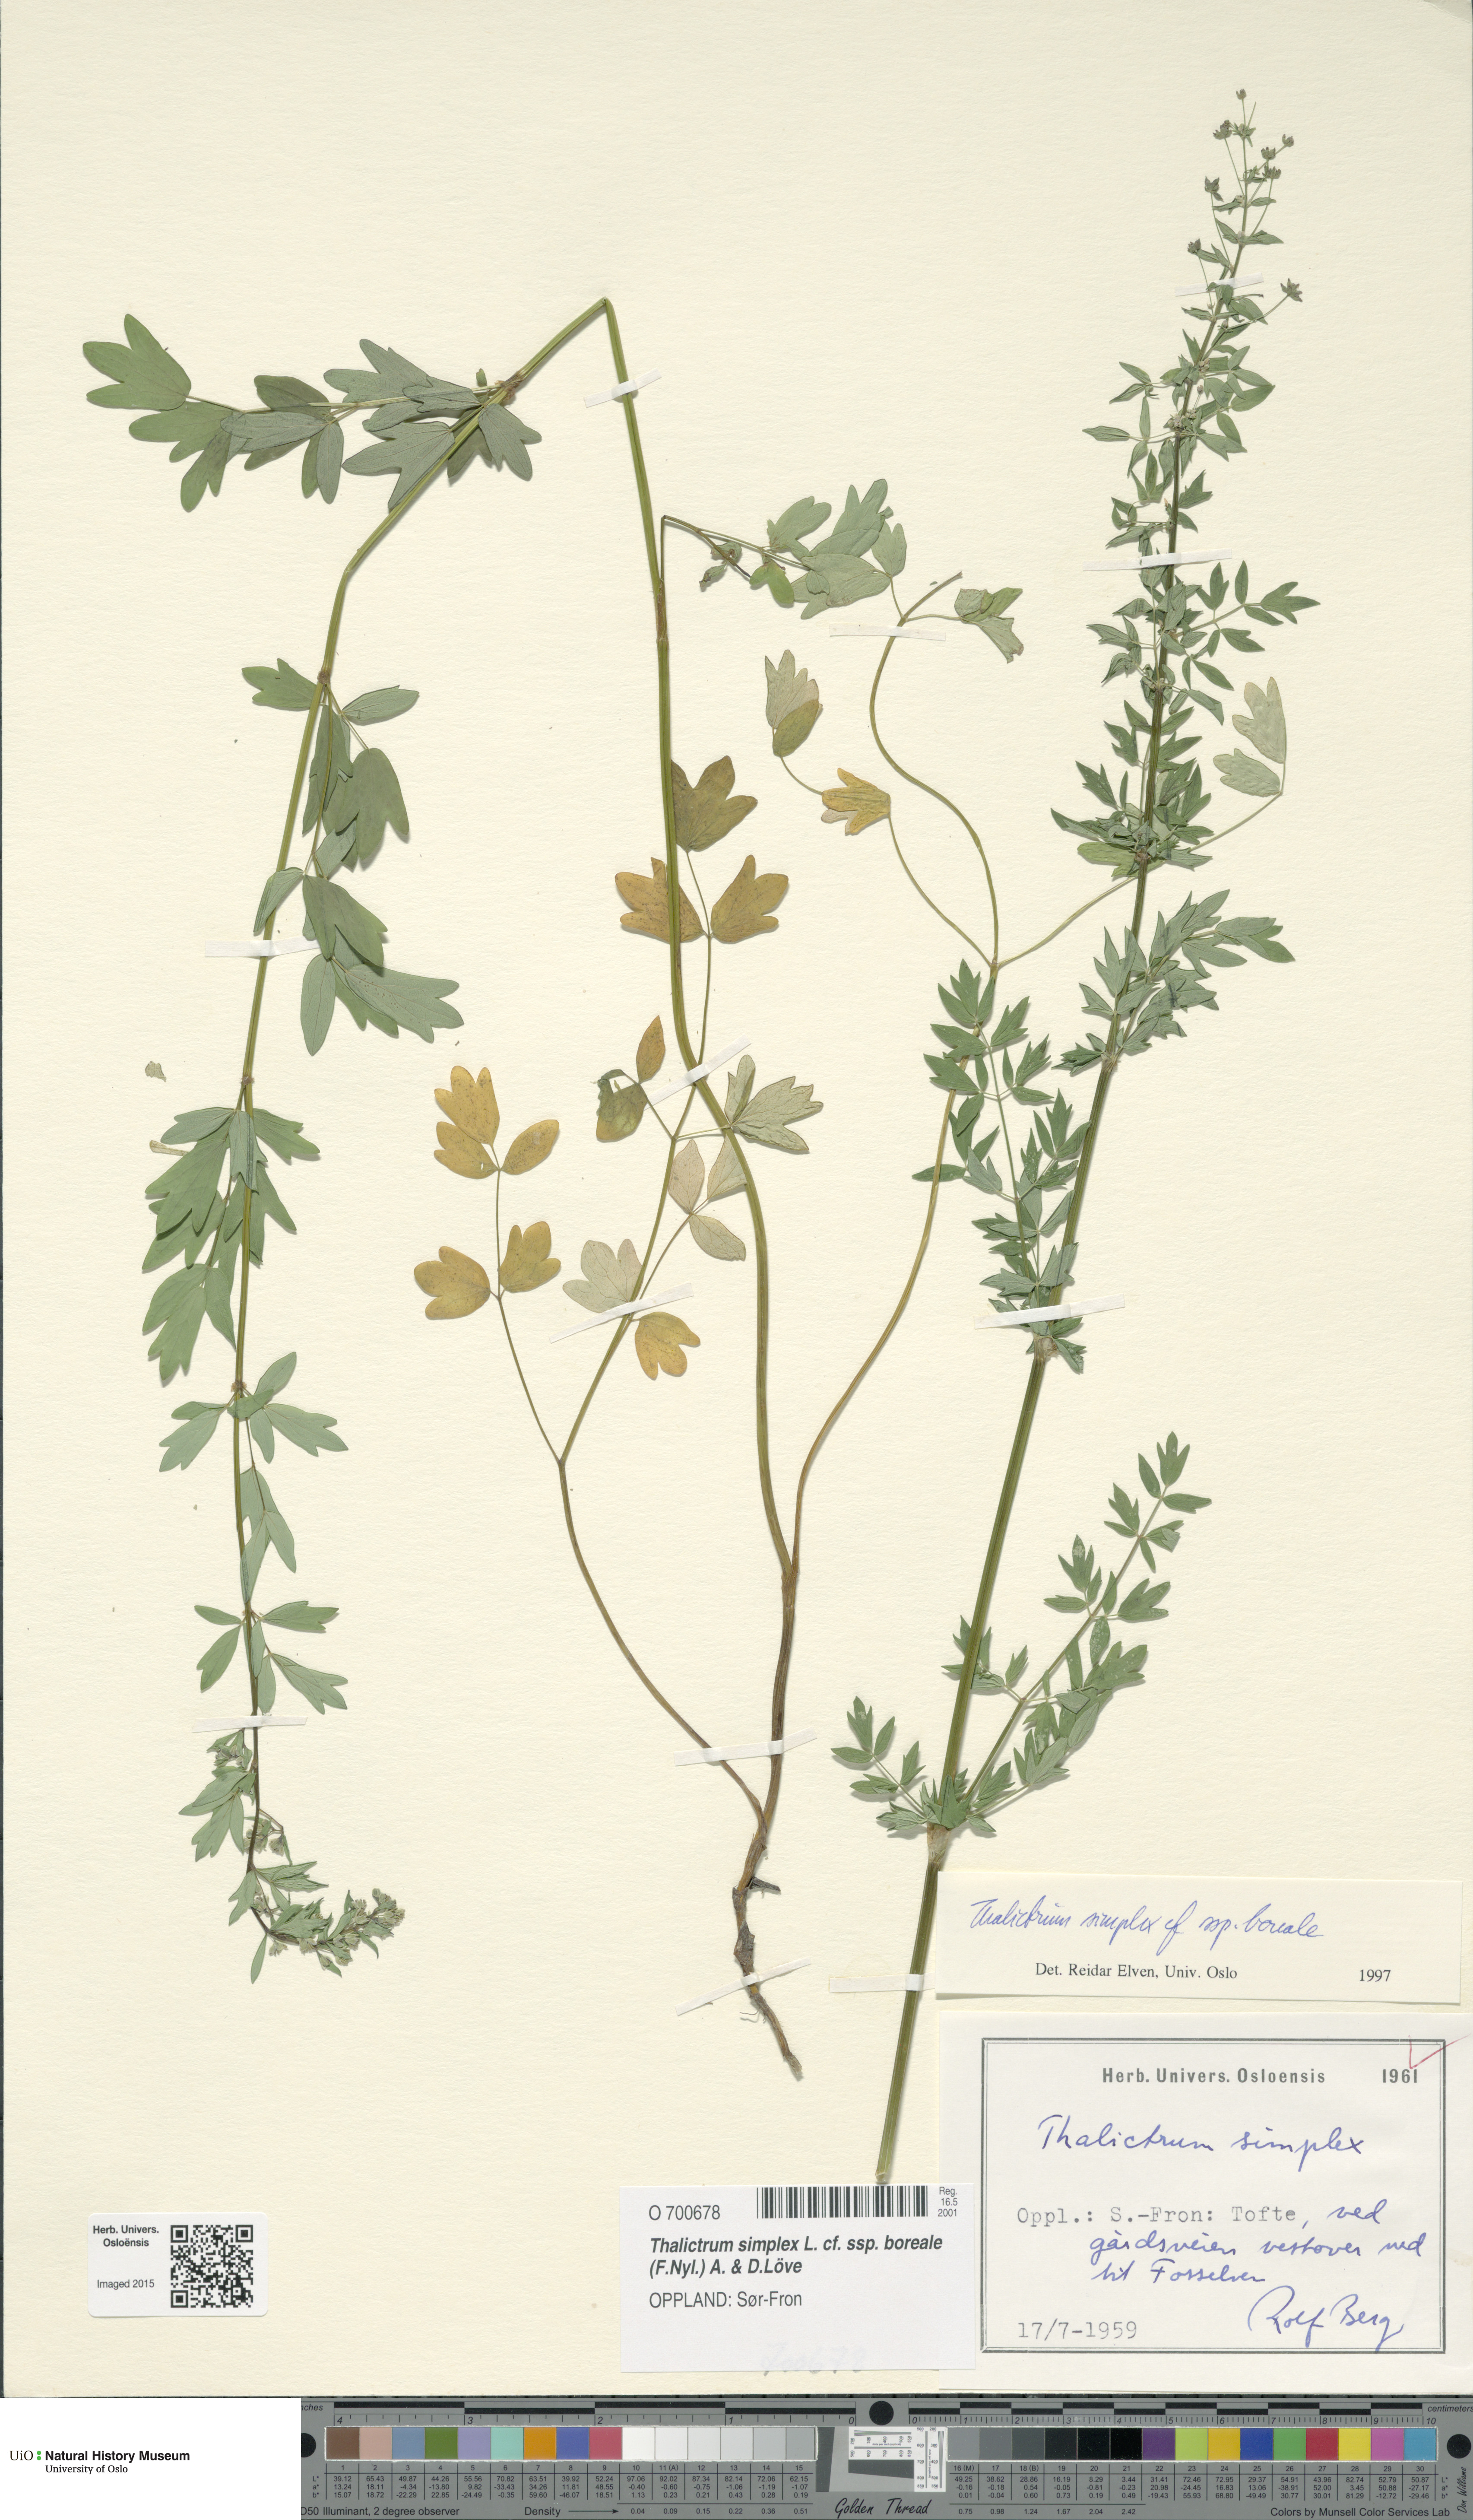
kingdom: Plantae
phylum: Tracheophyta
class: Magnoliopsida
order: Ranunculales
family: Ranunculaceae
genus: Thalictrum
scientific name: Thalictrum simplex
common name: Small meadow-rue
